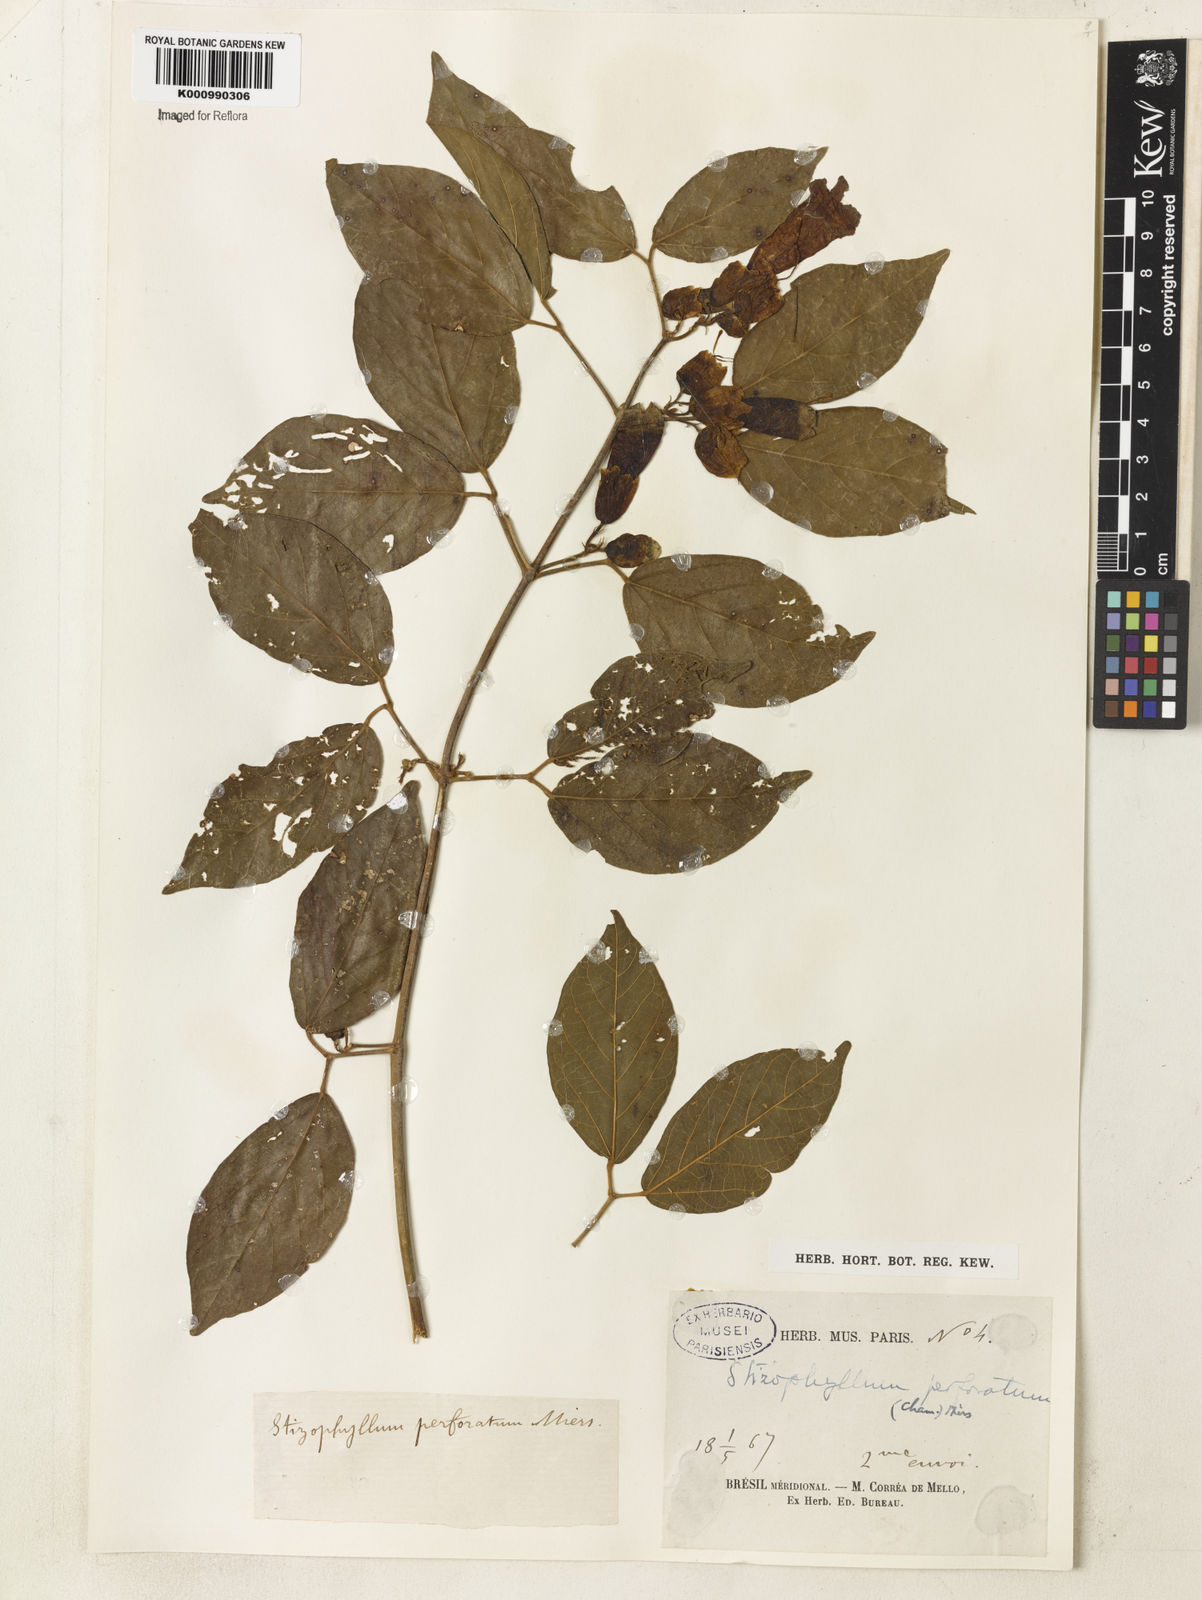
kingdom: Plantae
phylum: Tracheophyta
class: Magnoliopsida
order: Lamiales
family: Bignoniaceae
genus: Stizophyllum
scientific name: Stizophyllum perforatum
